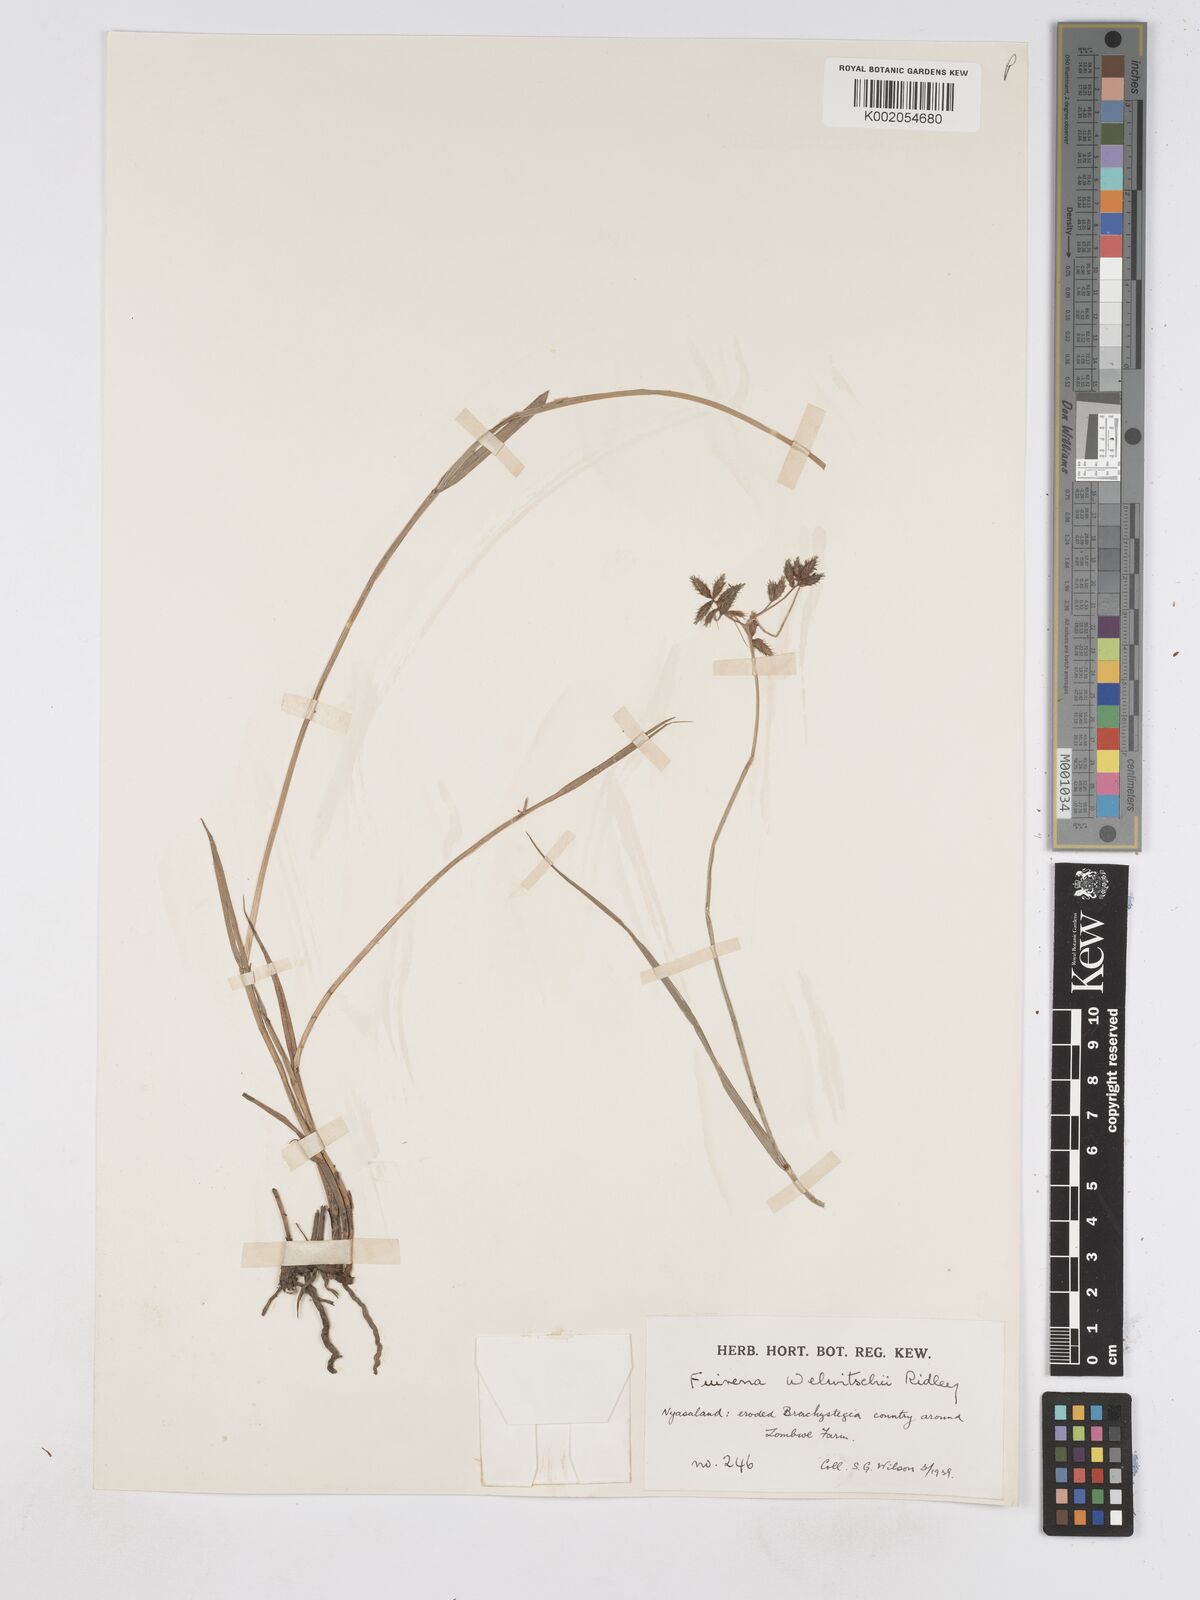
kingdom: Plantae
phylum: Tracheophyta
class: Liliopsida
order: Poales
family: Cyperaceae
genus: Fuirena
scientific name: Fuirena pachyrrhiza
